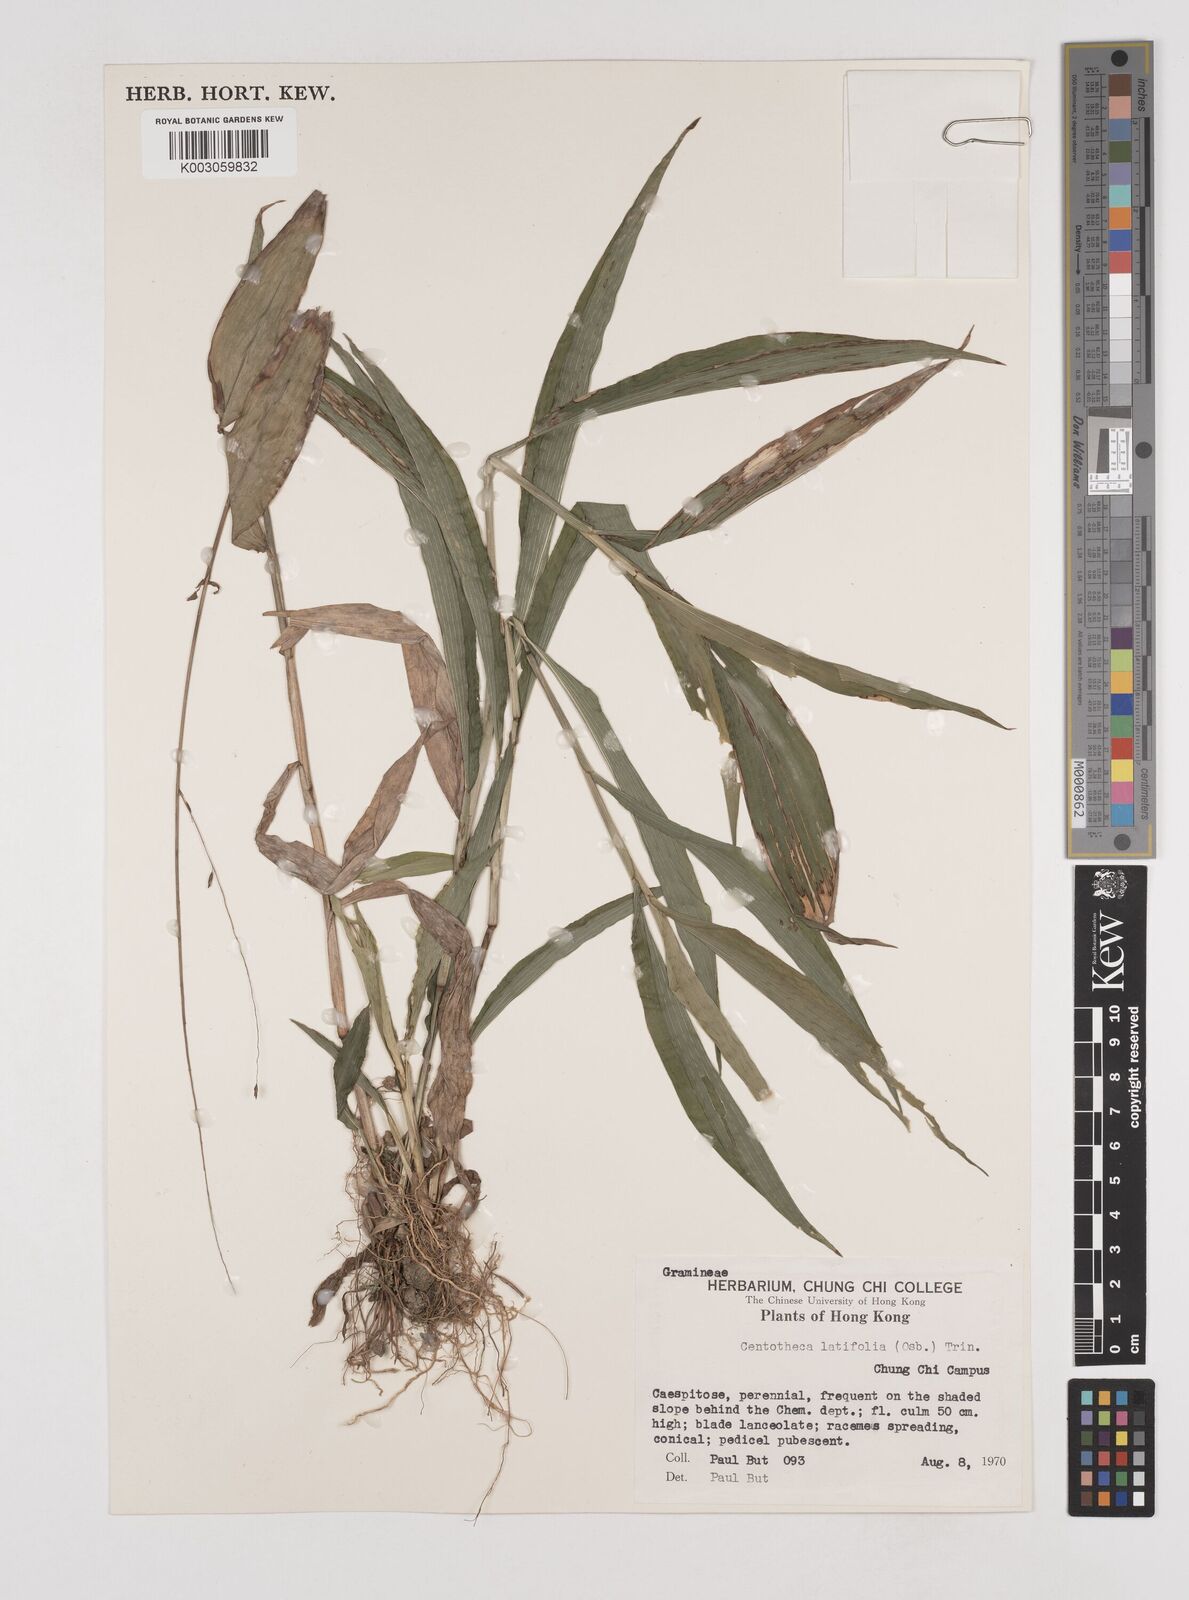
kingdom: Plantae
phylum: Tracheophyta
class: Liliopsida
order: Poales
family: Poaceae
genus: Centotheca
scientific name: Centotheca lappacea
